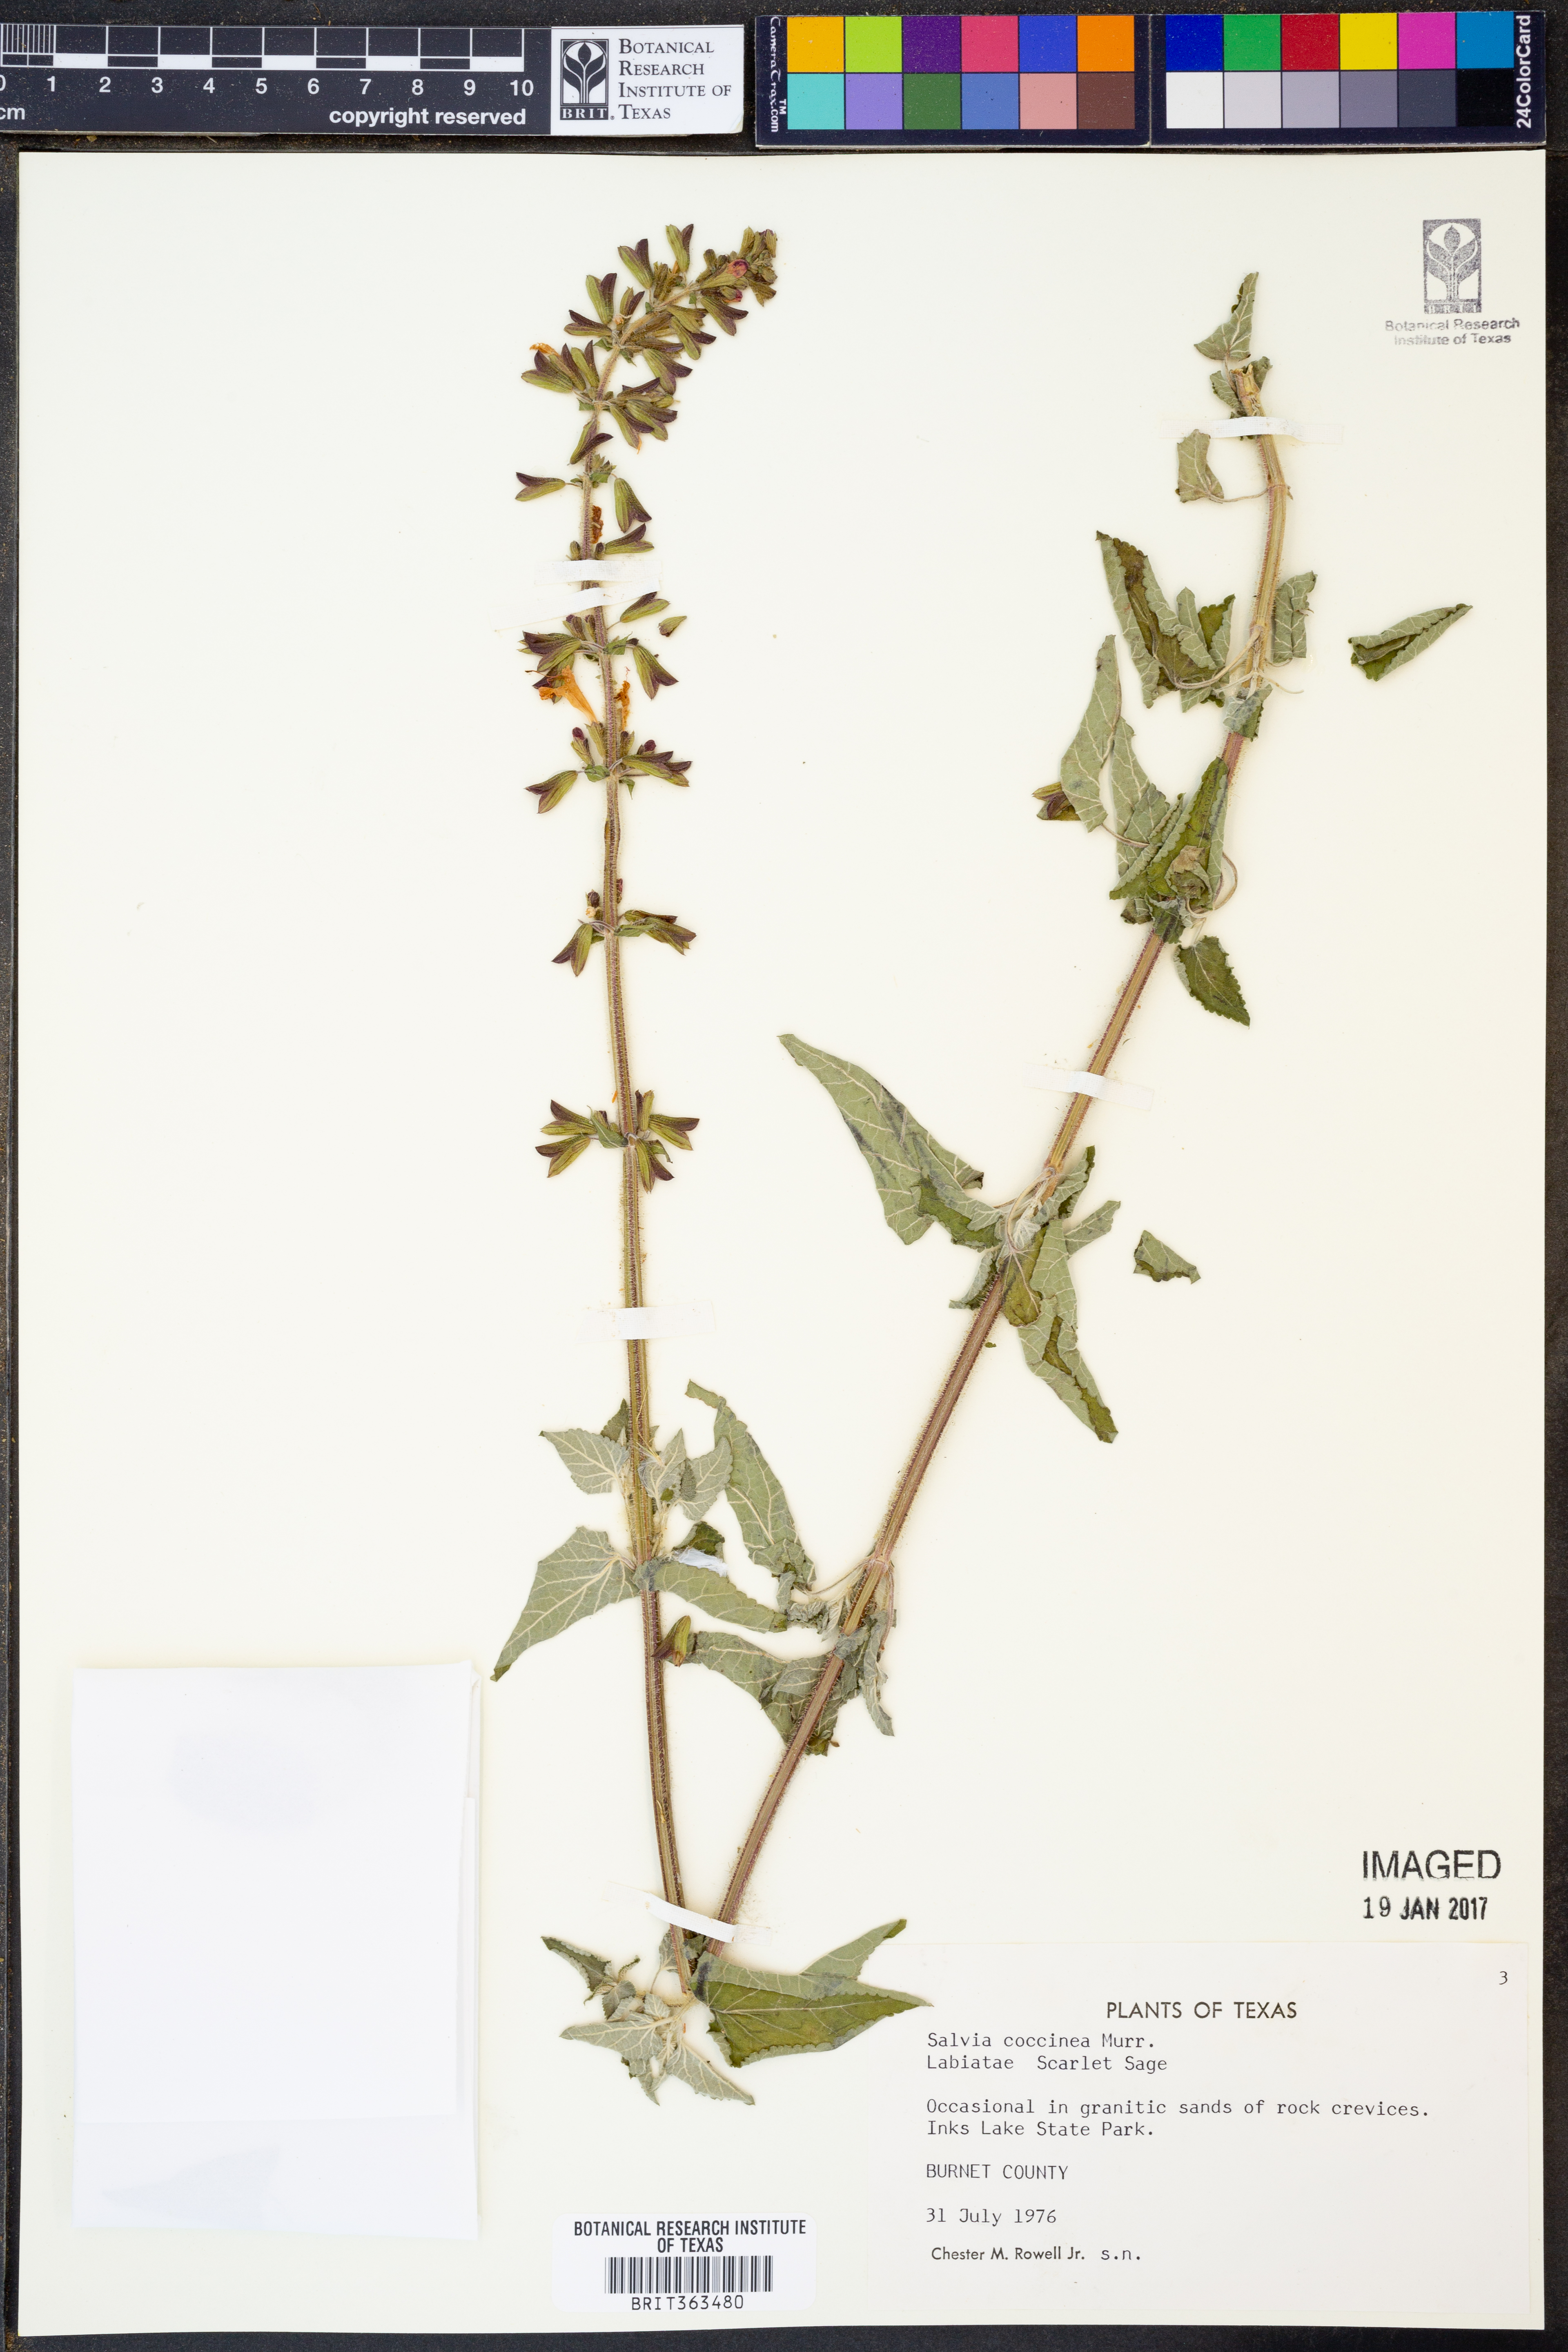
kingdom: Plantae
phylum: Tracheophyta
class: Magnoliopsida
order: Lamiales
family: Lamiaceae
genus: Salvia
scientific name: Salvia coccinea
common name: Blood sage
